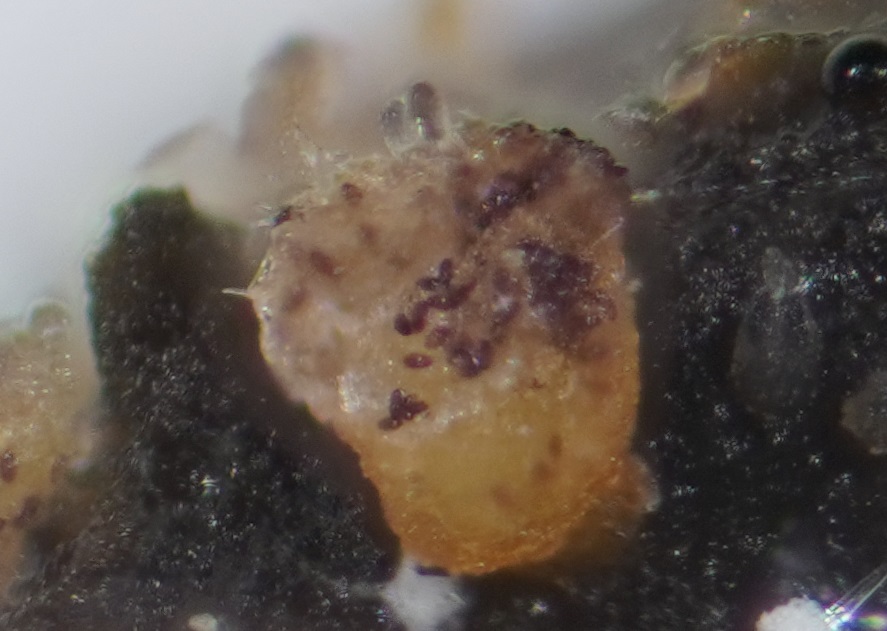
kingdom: Fungi
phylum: Ascomycota
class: Pezizomycetes
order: Pezizales
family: Ascobolaceae
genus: Ascobolus
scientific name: Ascobolus furfuraceus
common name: almindelig prikbæger
